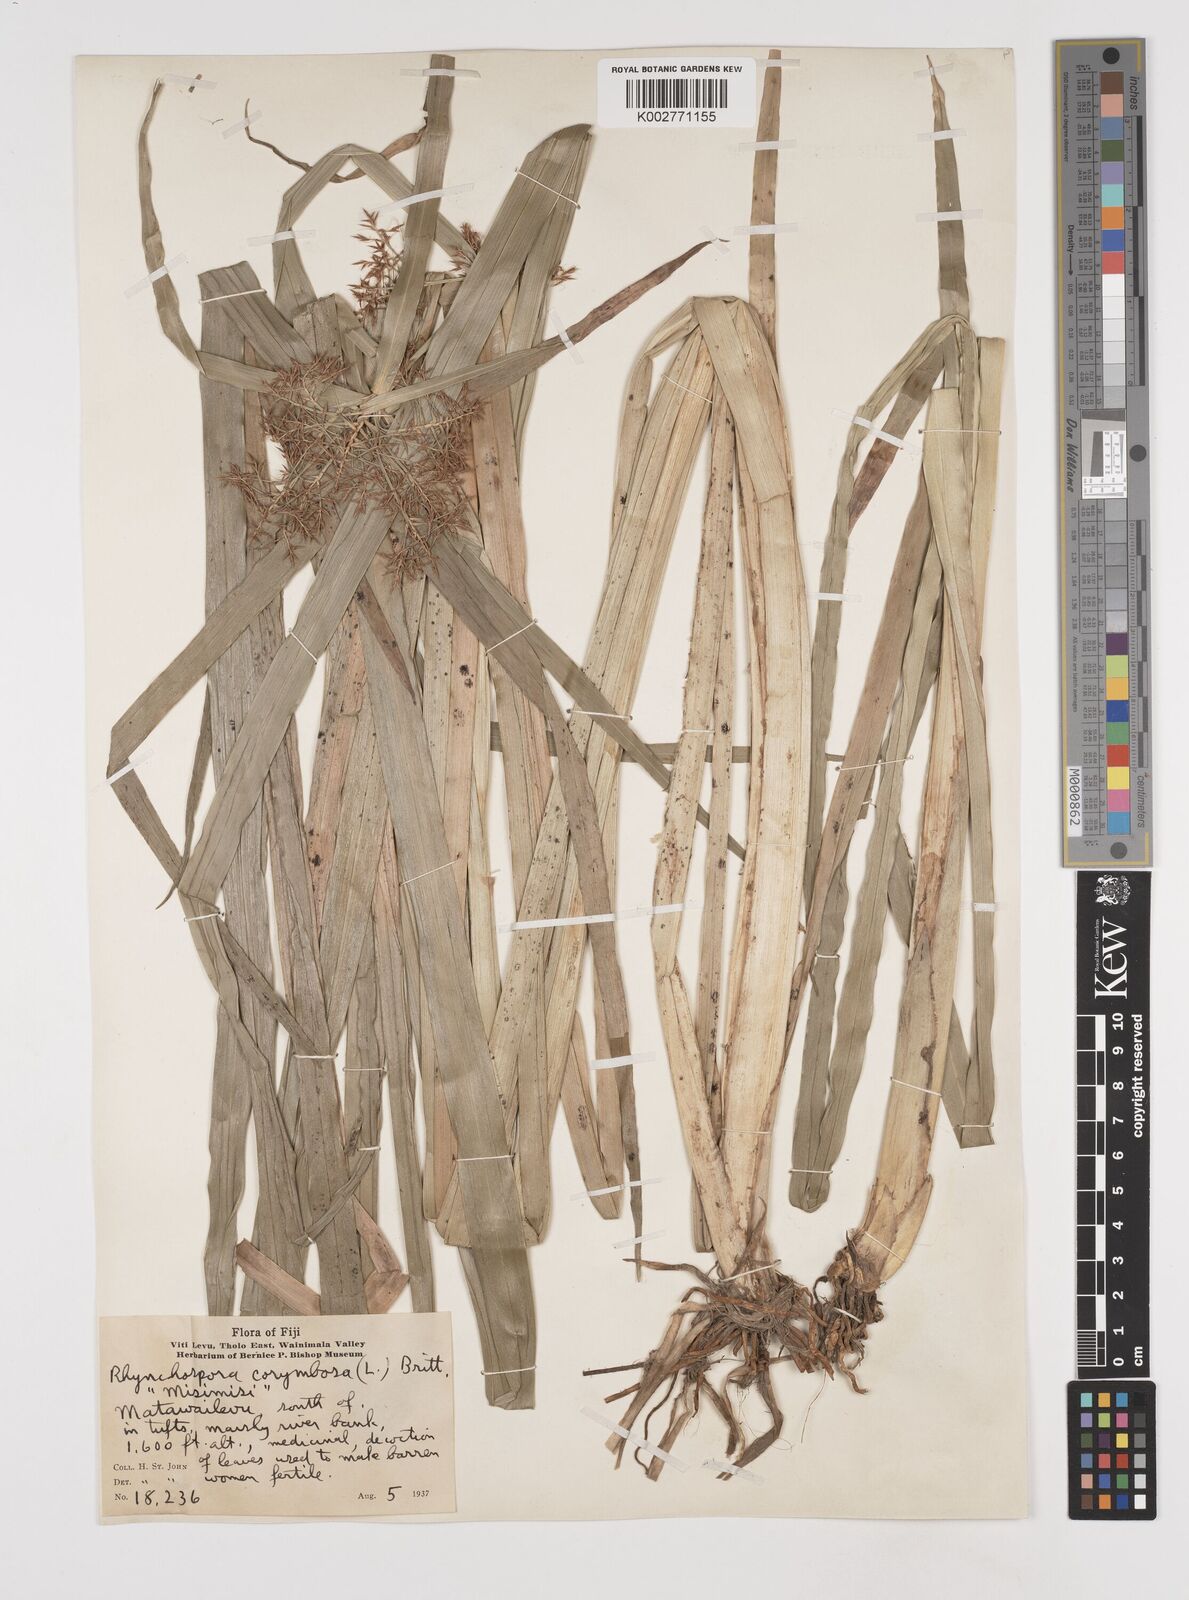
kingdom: Plantae
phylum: Tracheophyta
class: Liliopsida
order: Poales
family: Cyperaceae
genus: Rhynchospora
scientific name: Rhynchospora corymbosa
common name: Golden beak sedge
